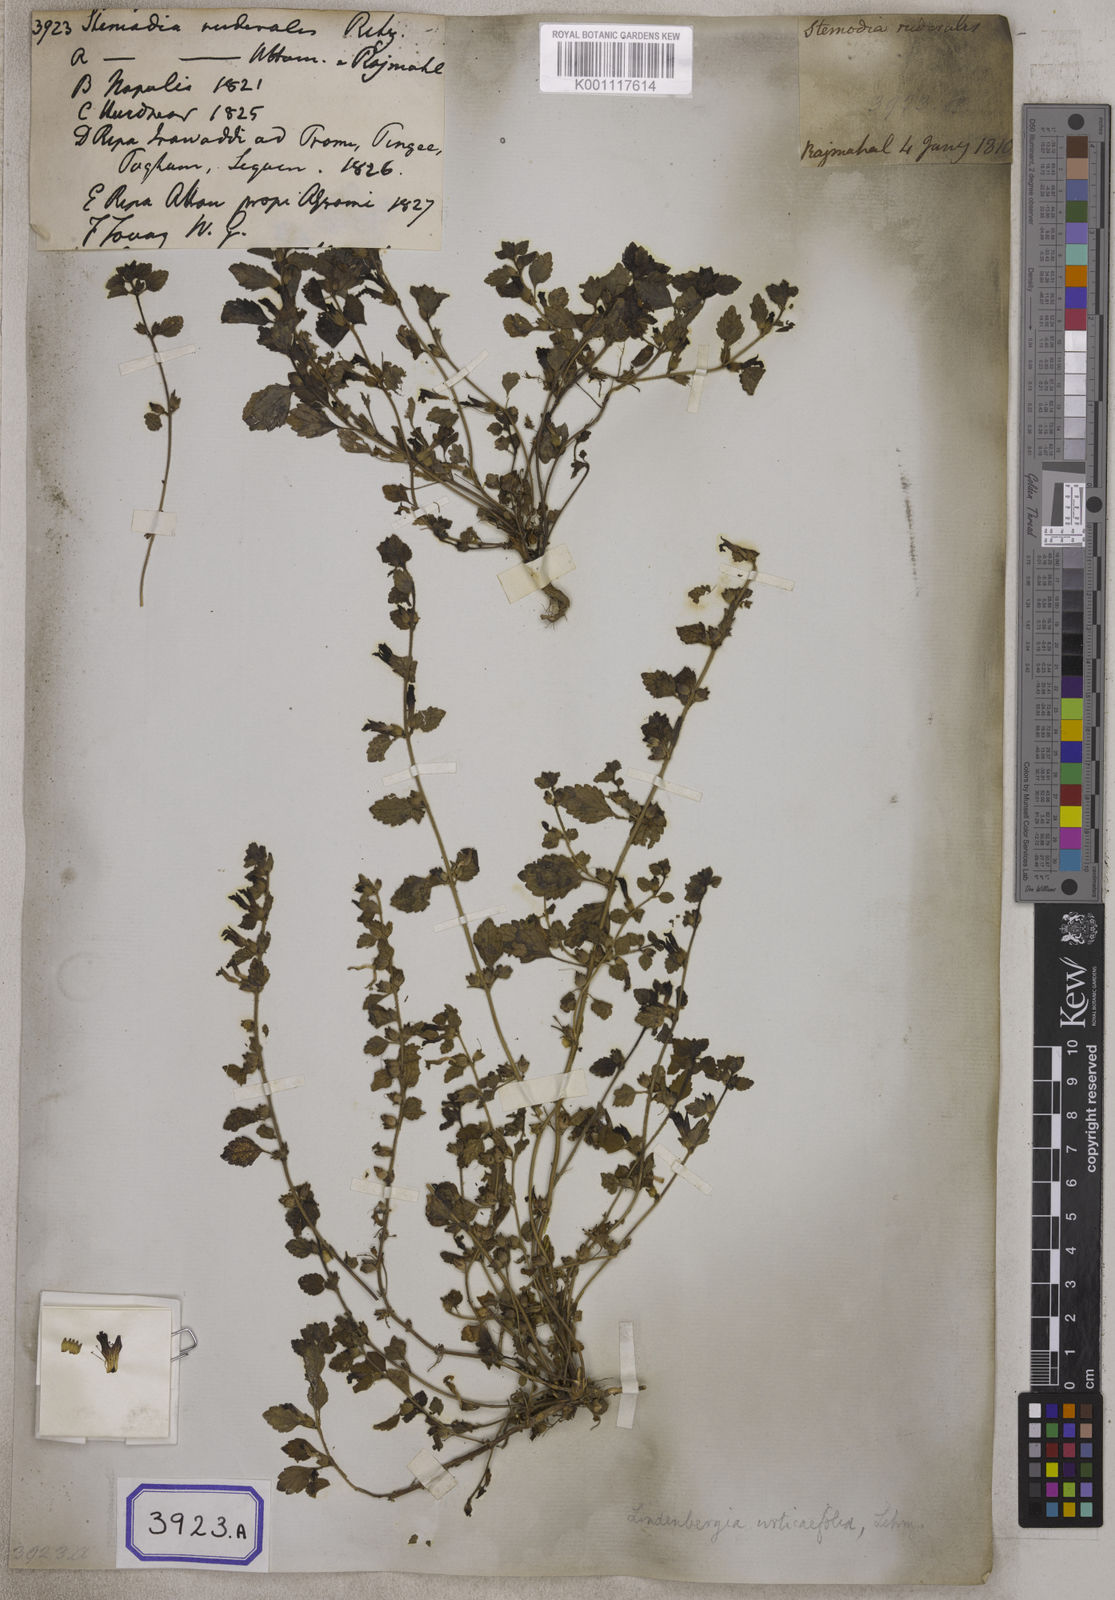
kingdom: Plantae
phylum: Tracheophyta
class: Magnoliopsida
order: Lamiales
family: Orobanchaceae
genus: Lindenbergia
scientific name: Lindenbergia muraria
